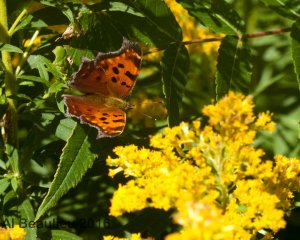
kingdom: Animalia
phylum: Arthropoda
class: Insecta
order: Lepidoptera
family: Nymphalidae
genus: Polygonia
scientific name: Polygonia comma
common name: Eastern Comma
